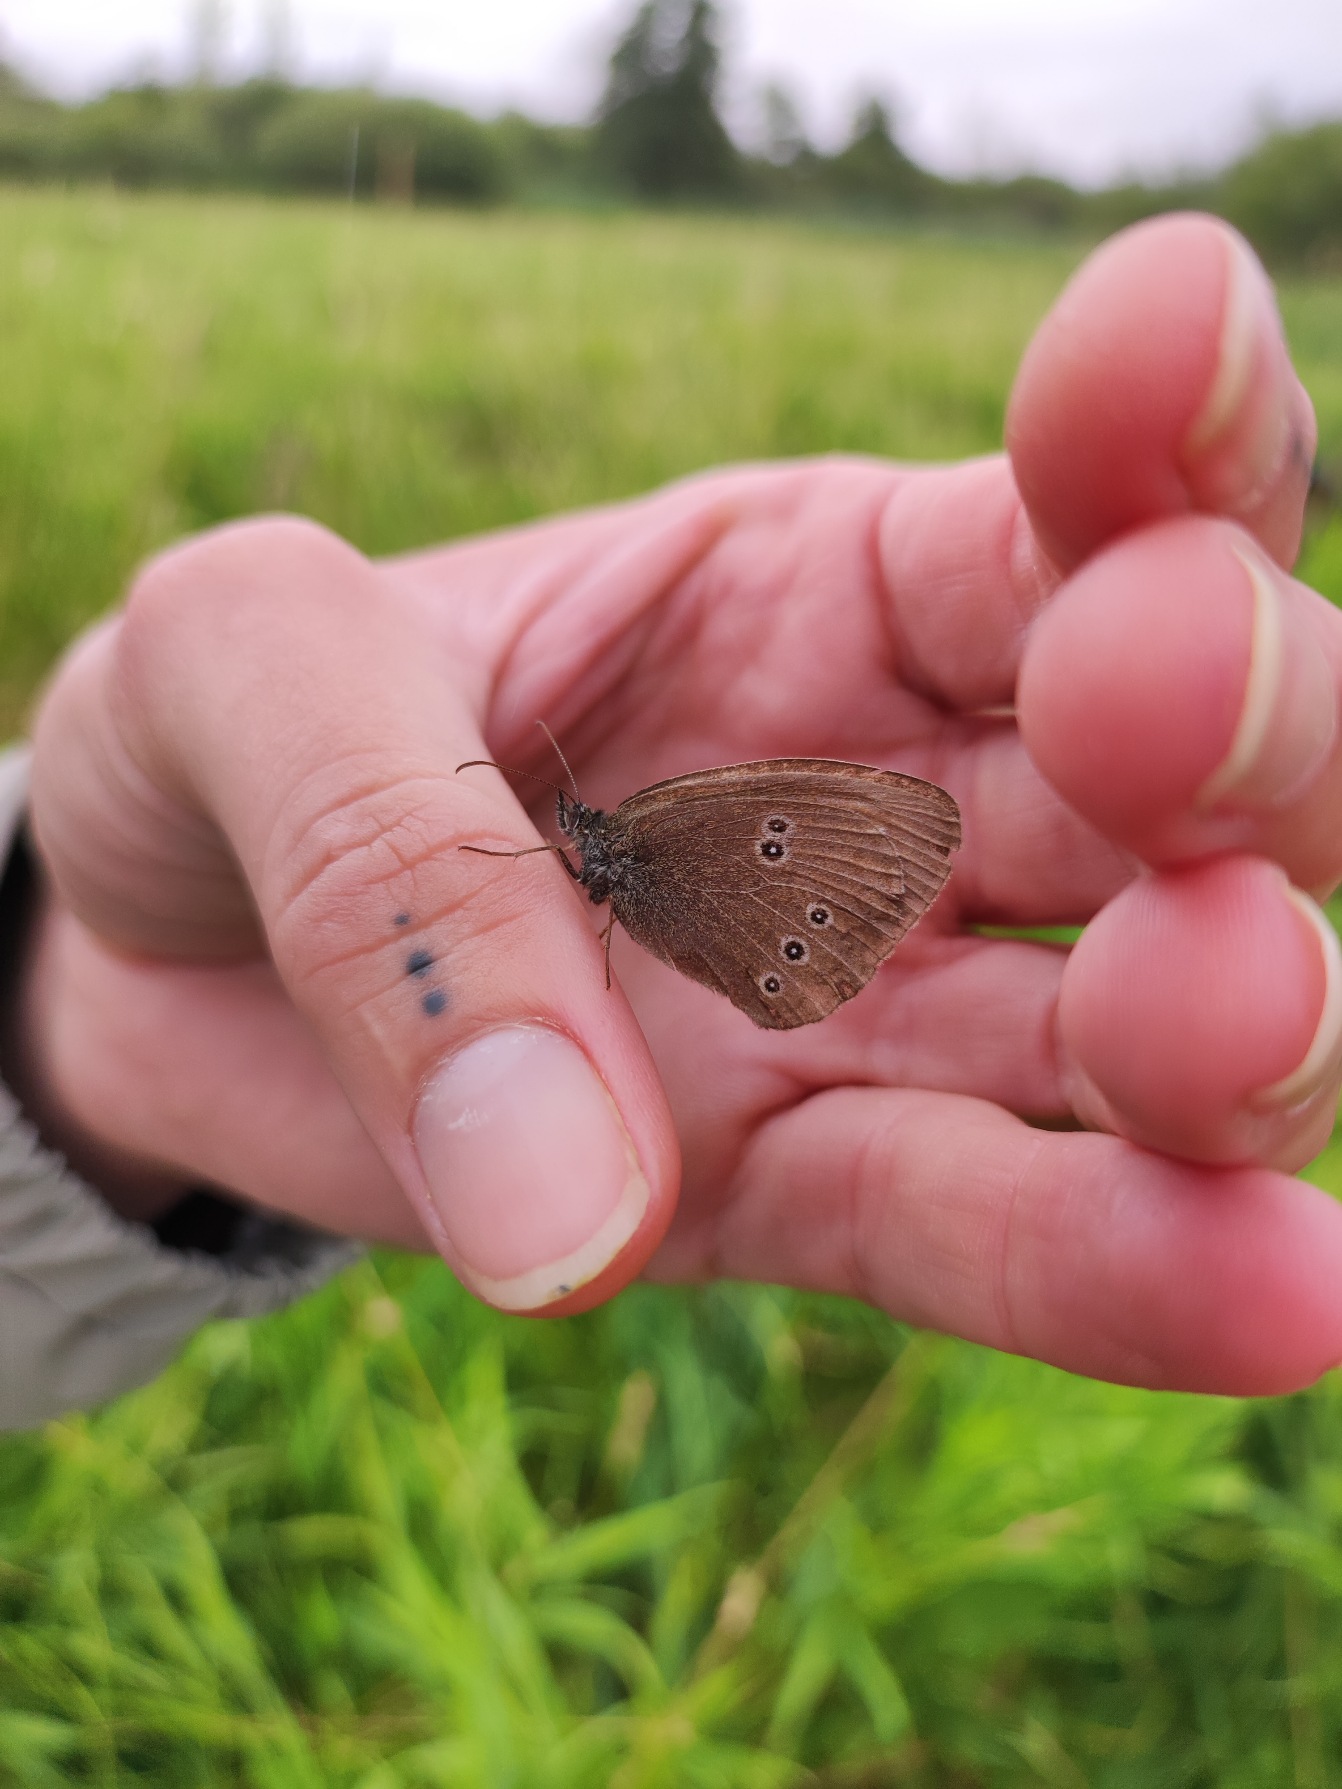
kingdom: Animalia
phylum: Arthropoda
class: Insecta
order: Lepidoptera
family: Nymphalidae
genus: Aphantopus
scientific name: Aphantopus hyperantus
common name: Engrandøje
